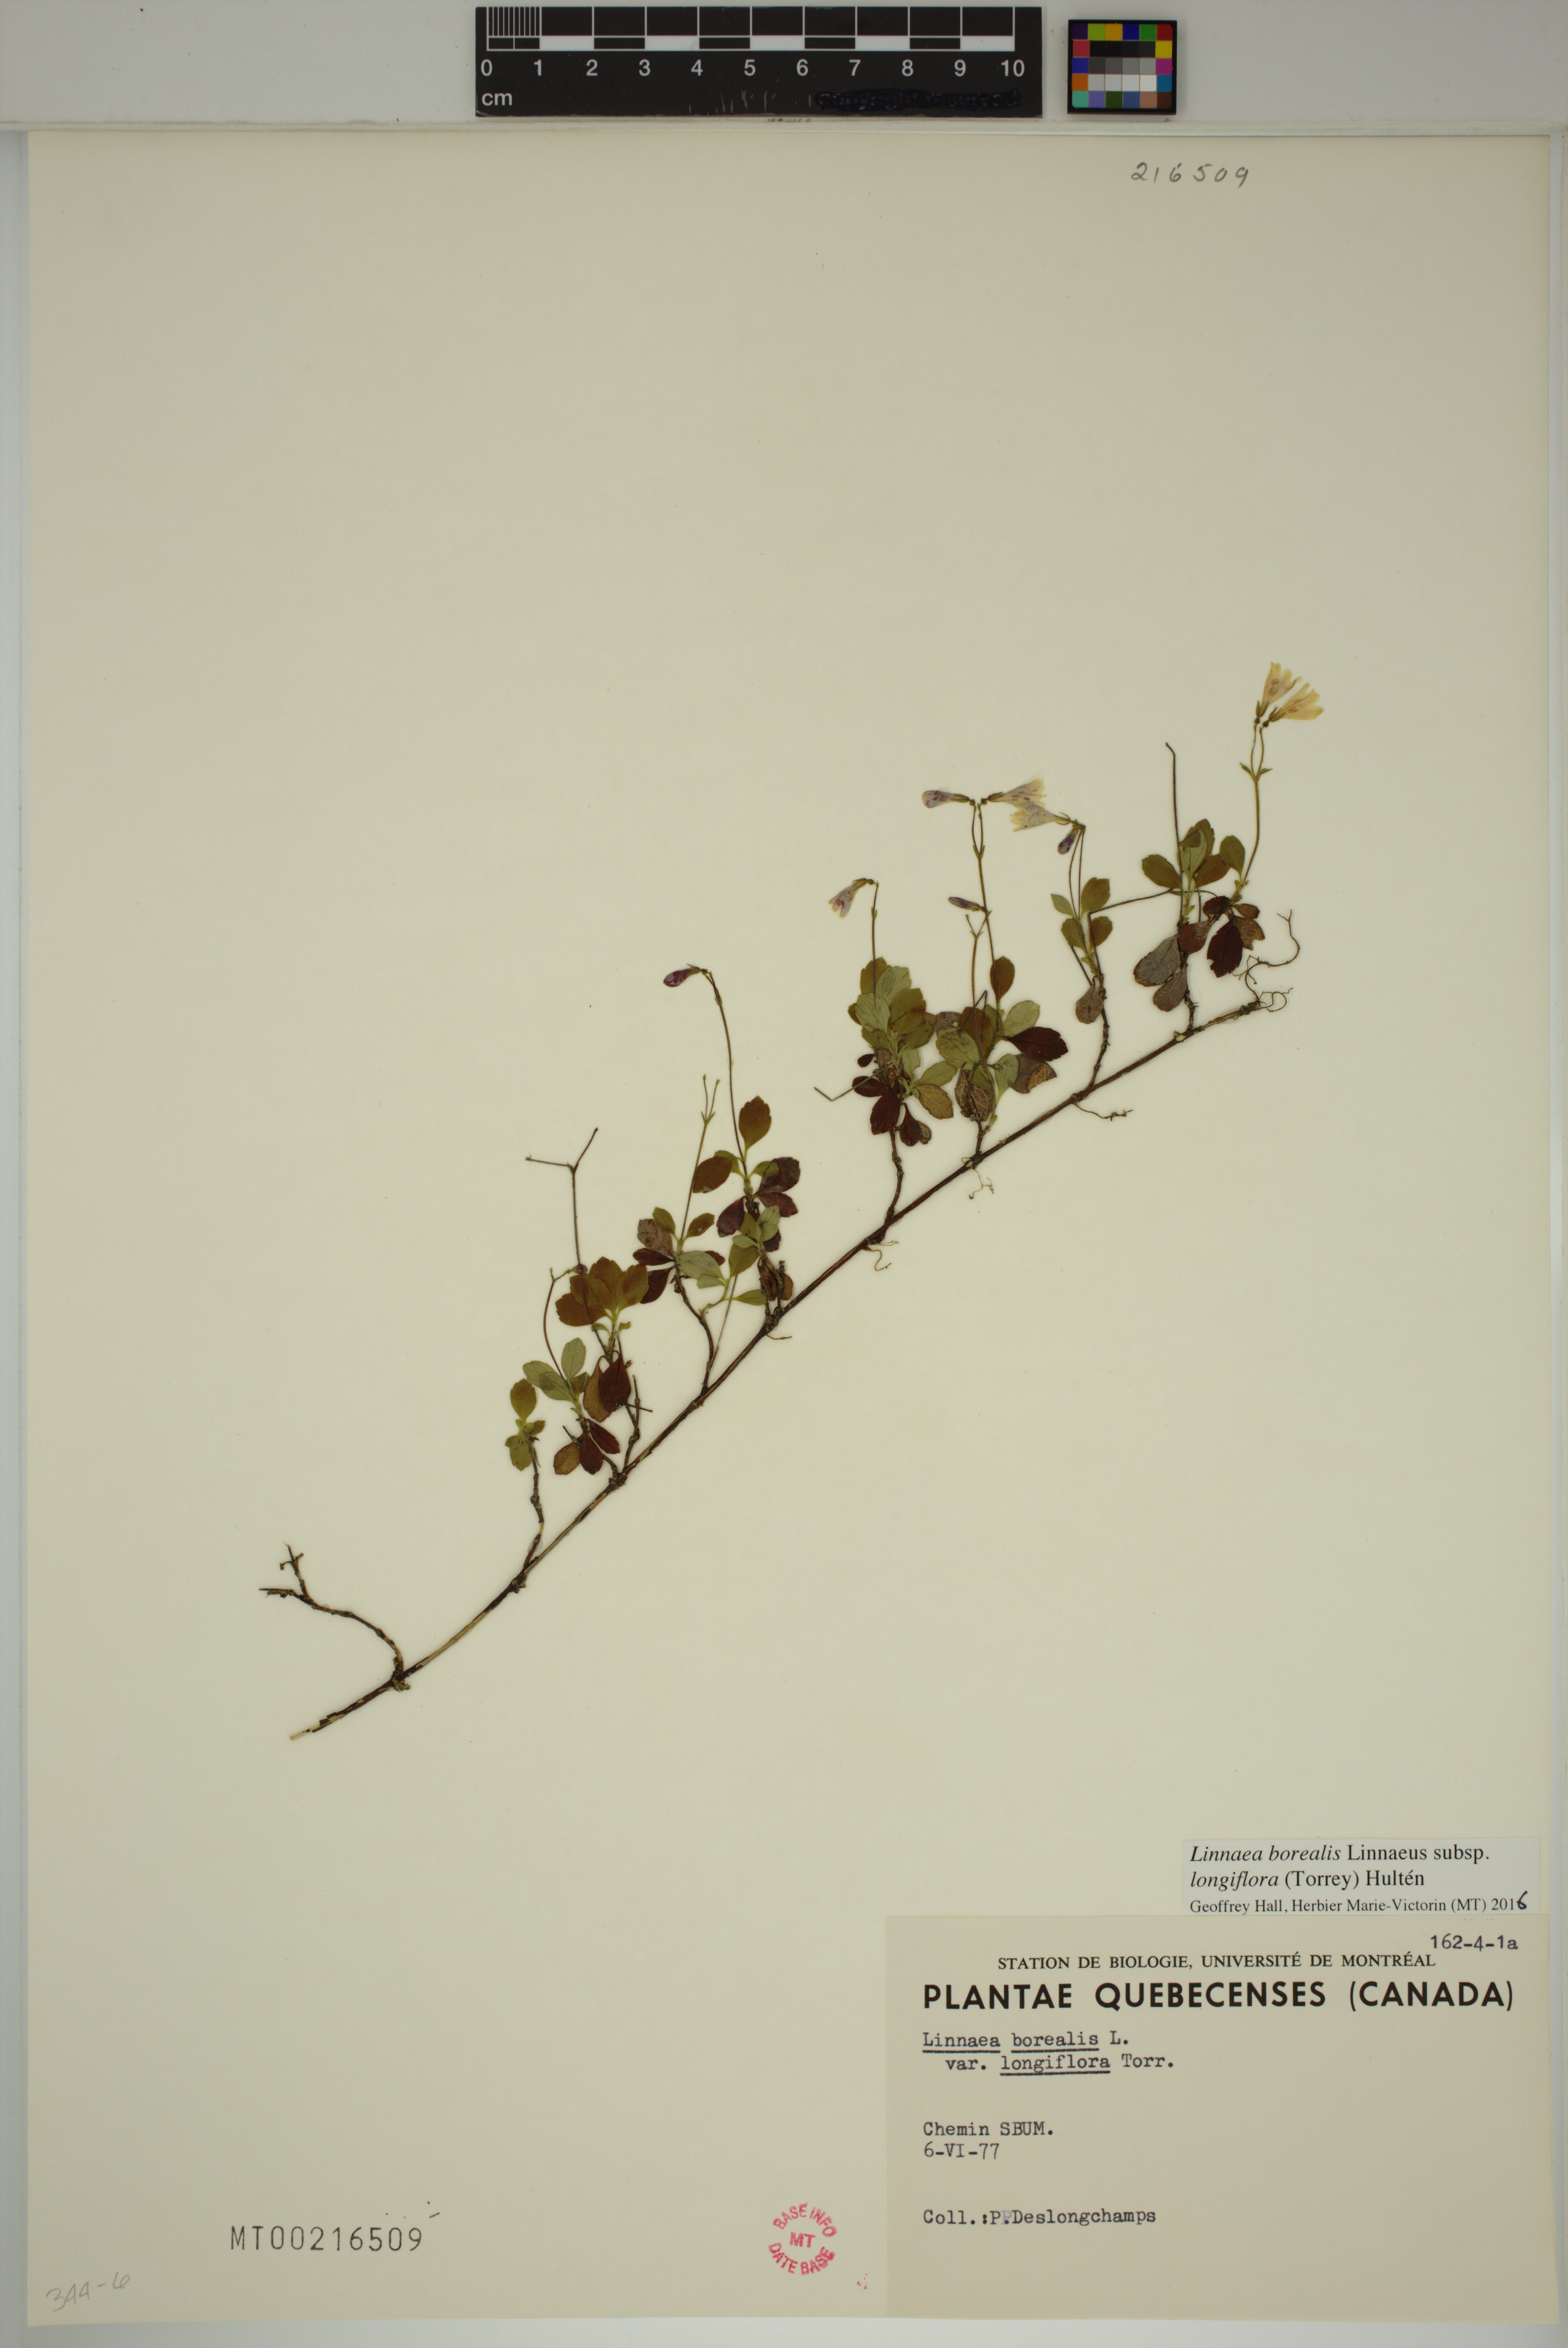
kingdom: Plantae
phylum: Tracheophyta
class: Magnoliopsida
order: Dipsacales
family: Caprifoliaceae
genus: Linnaea
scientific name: Linnaea borealis
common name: Twinflower
